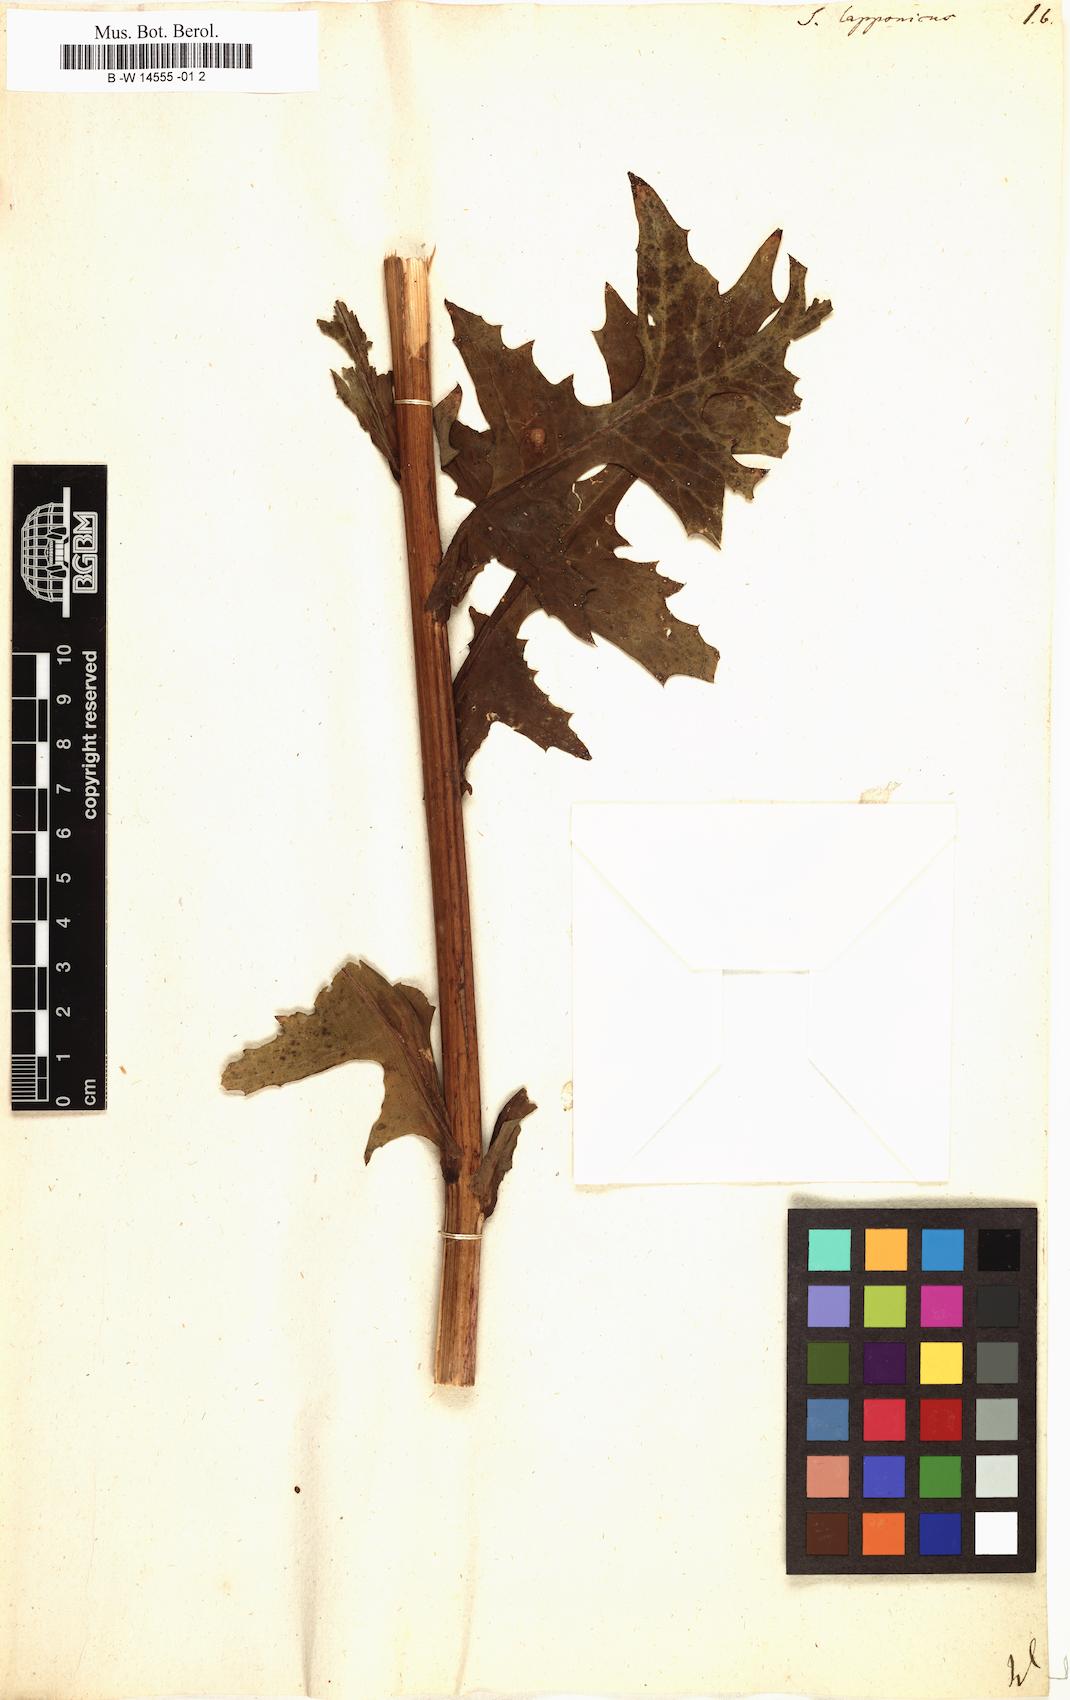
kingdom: Plantae
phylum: Tracheophyta
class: Magnoliopsida
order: Asterales
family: Asteraceae
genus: Cicerbita
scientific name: Cicerbita alpina
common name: Alpine blue-sow-thistle
